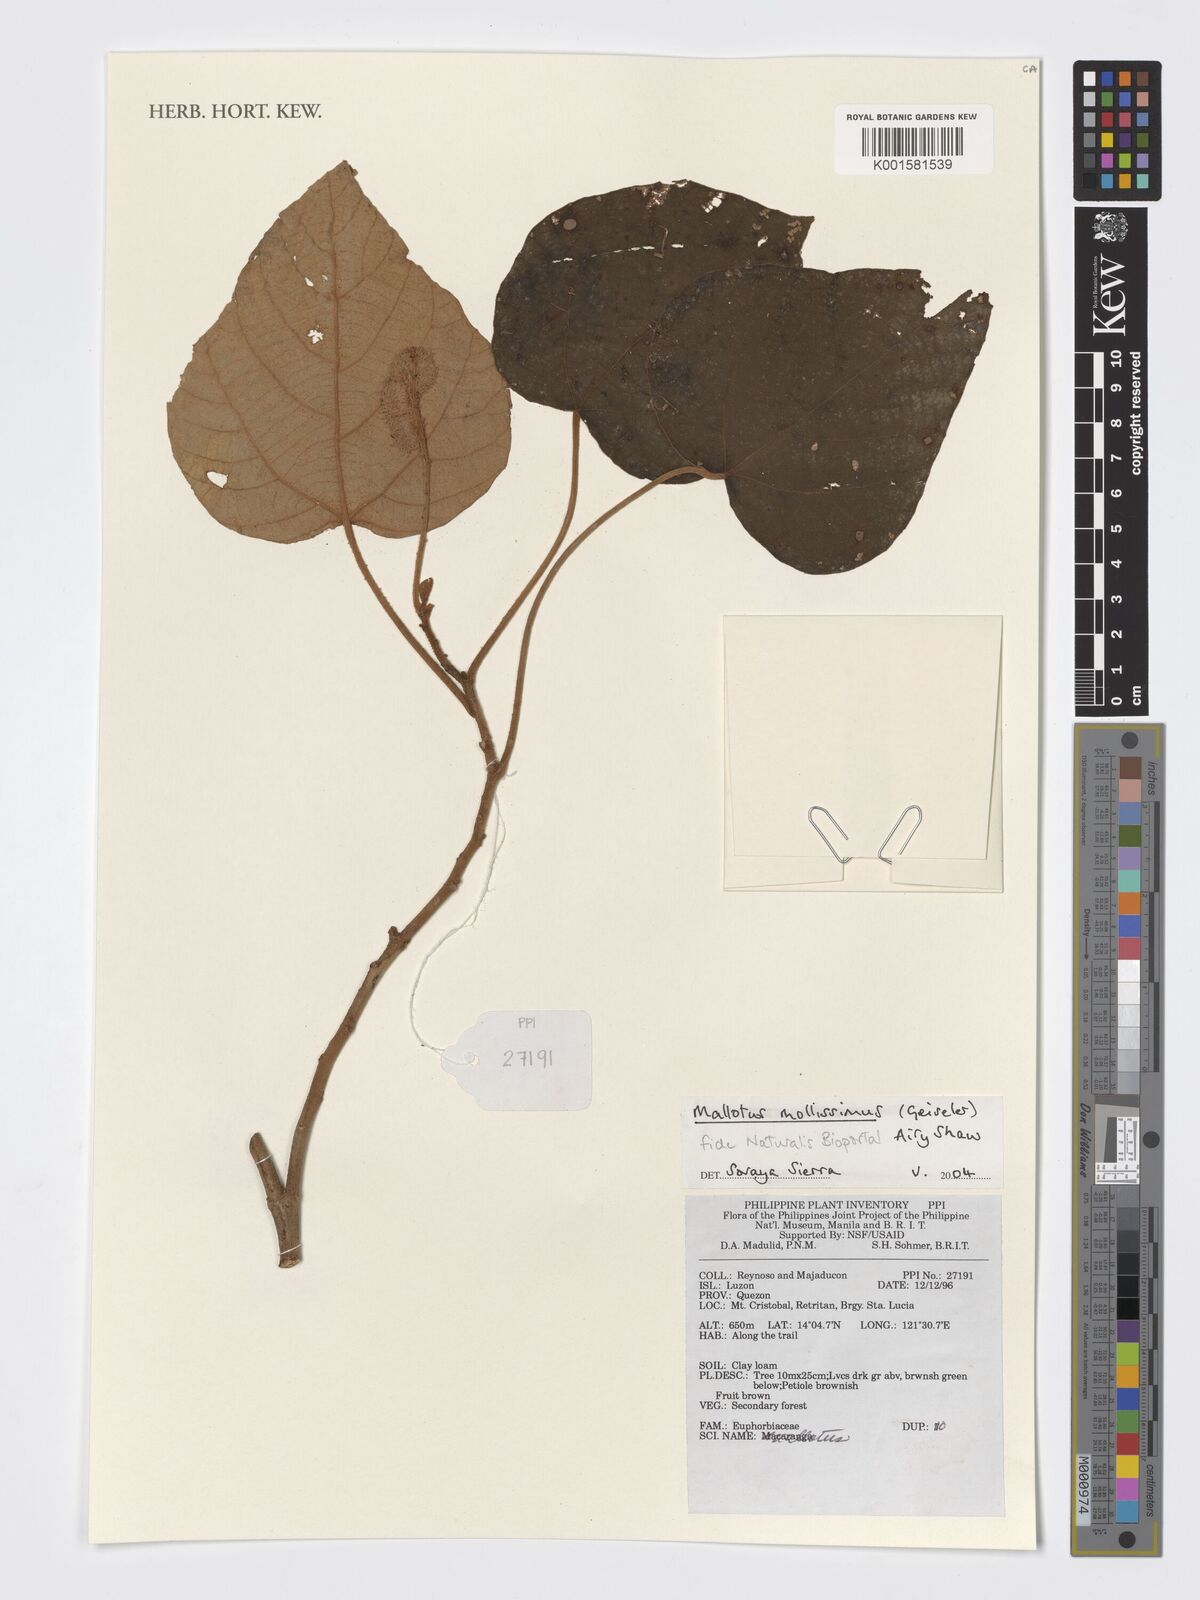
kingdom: Plantae
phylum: Tracheophyta
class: Magnoliopsida
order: Malpighiales
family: Euphorbiaceae
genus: Mallotus
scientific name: Mallotus mollissimus
